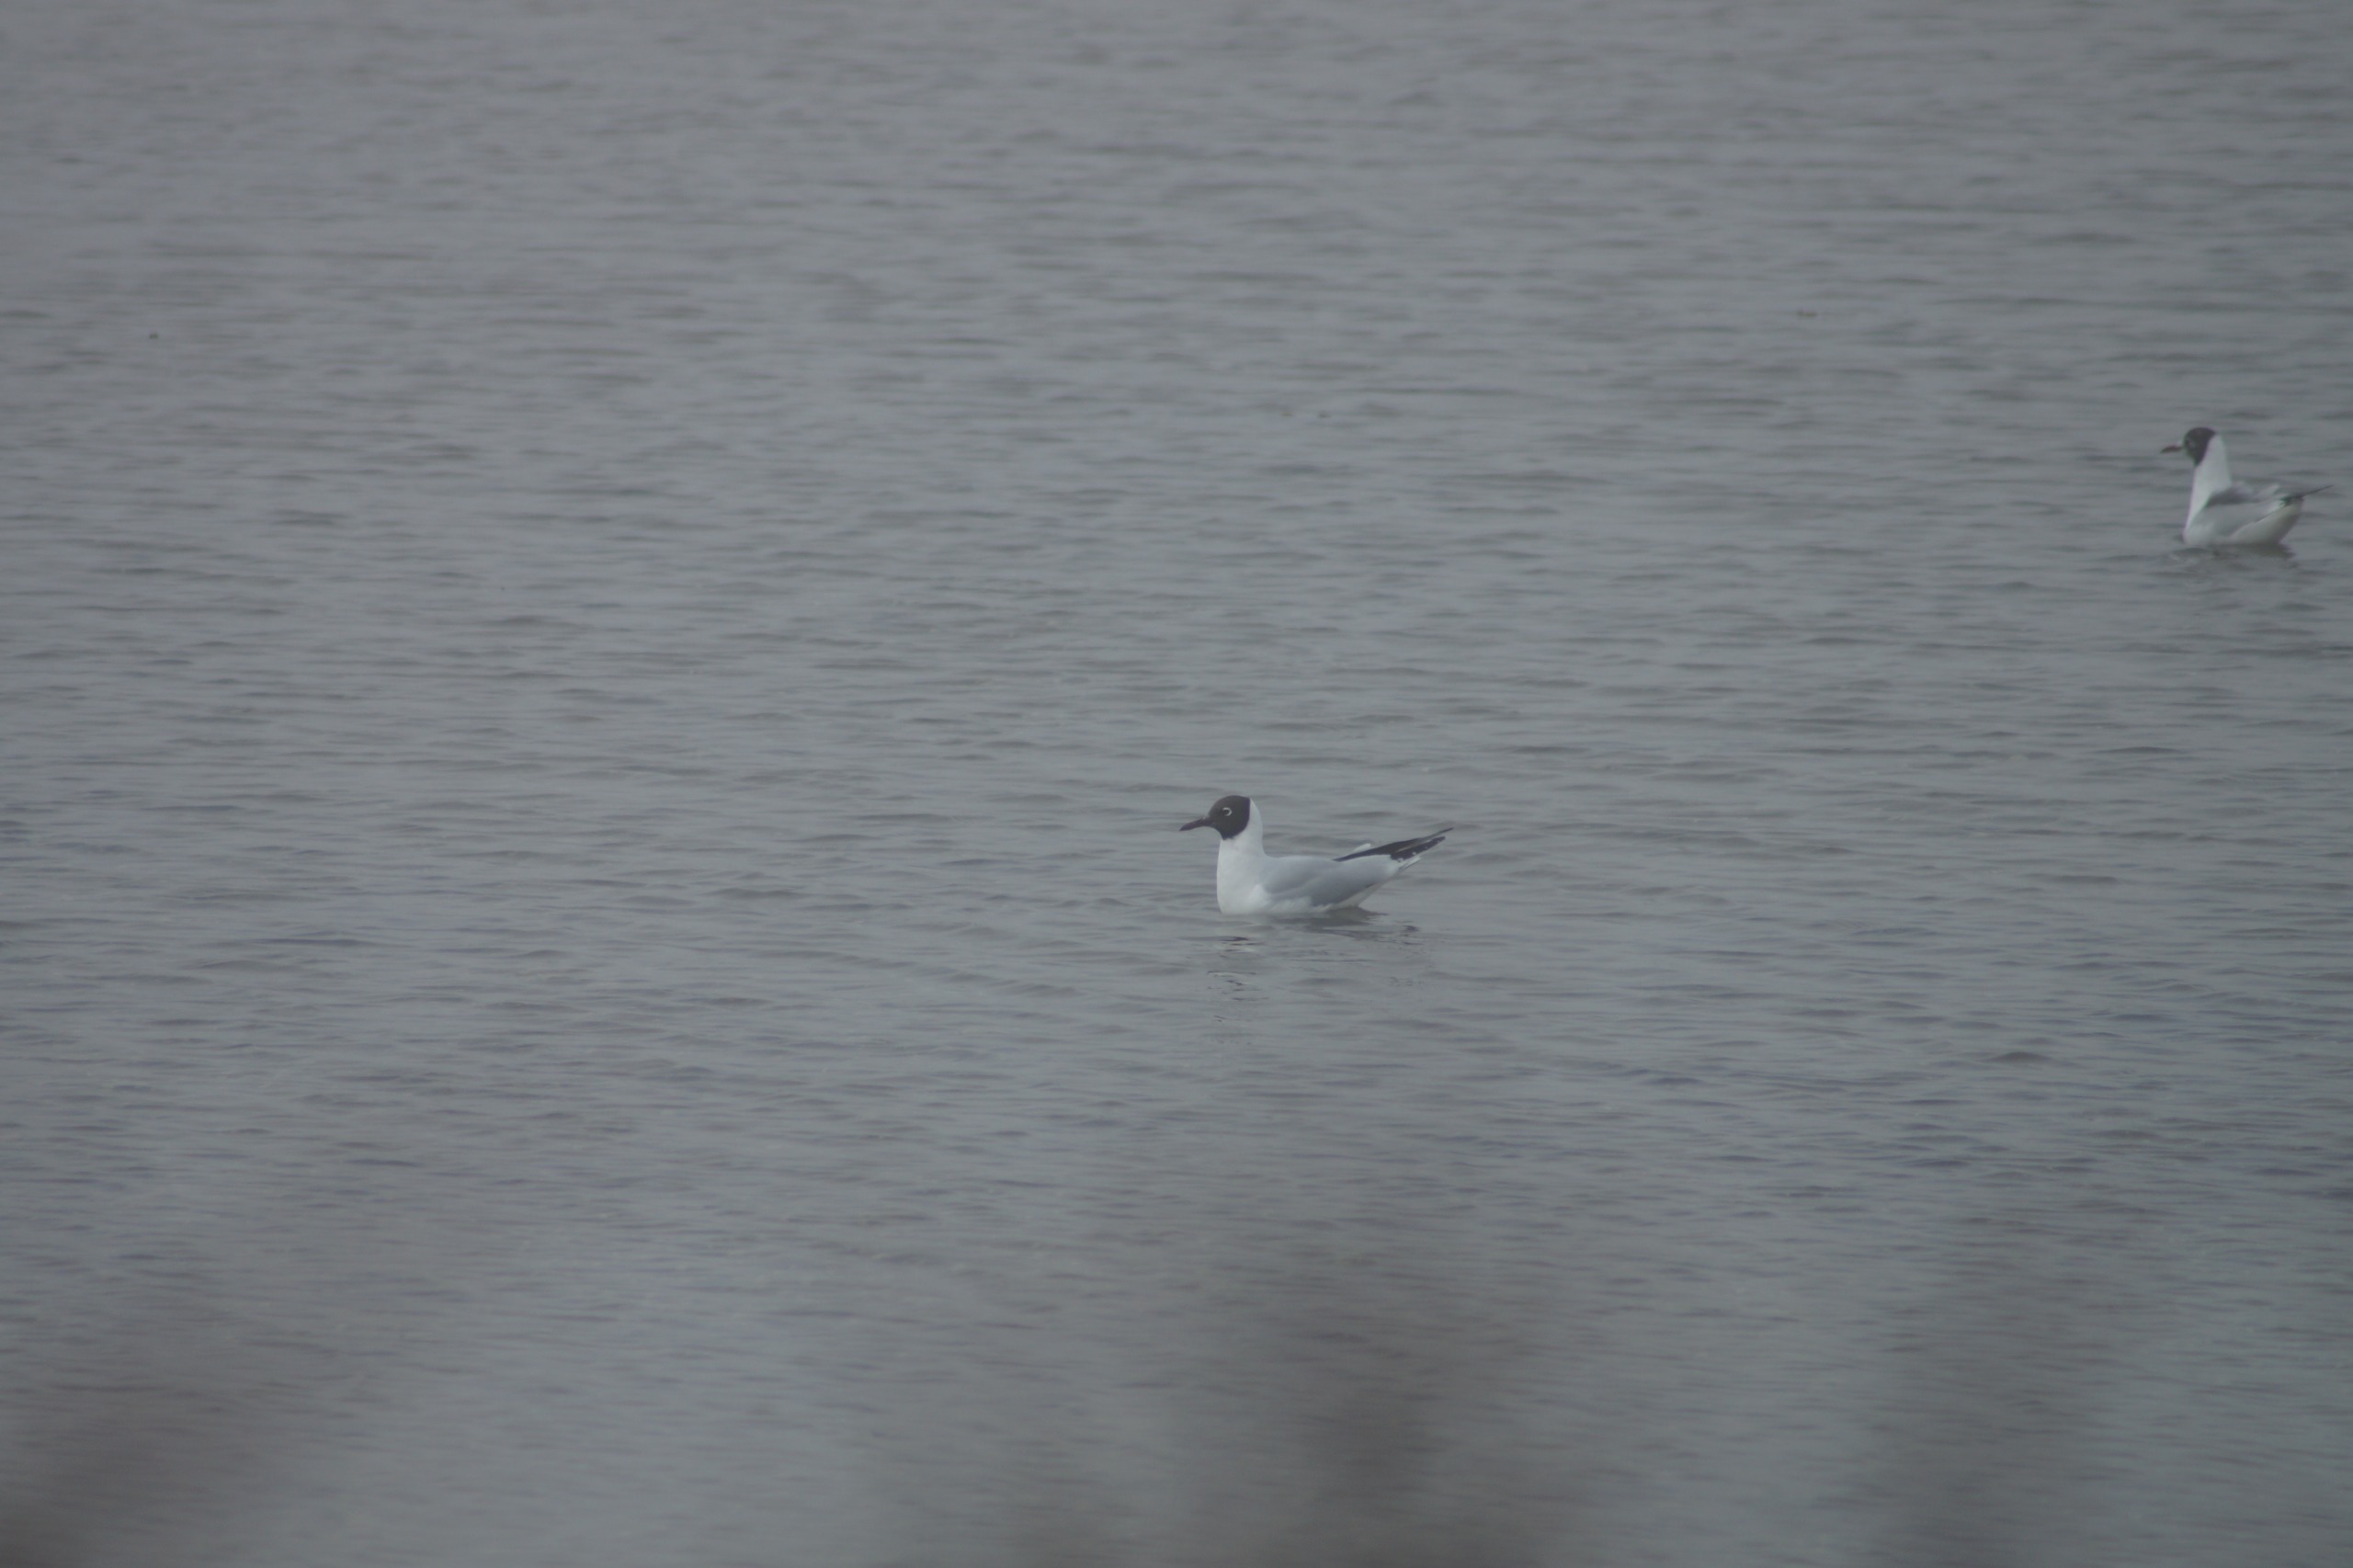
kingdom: Animalia
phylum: Chordata
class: Aves
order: Charadriiformes
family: Laridae
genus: Chroicocephalus
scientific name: Chroicocephalus ridibundus
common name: Hættemåge
